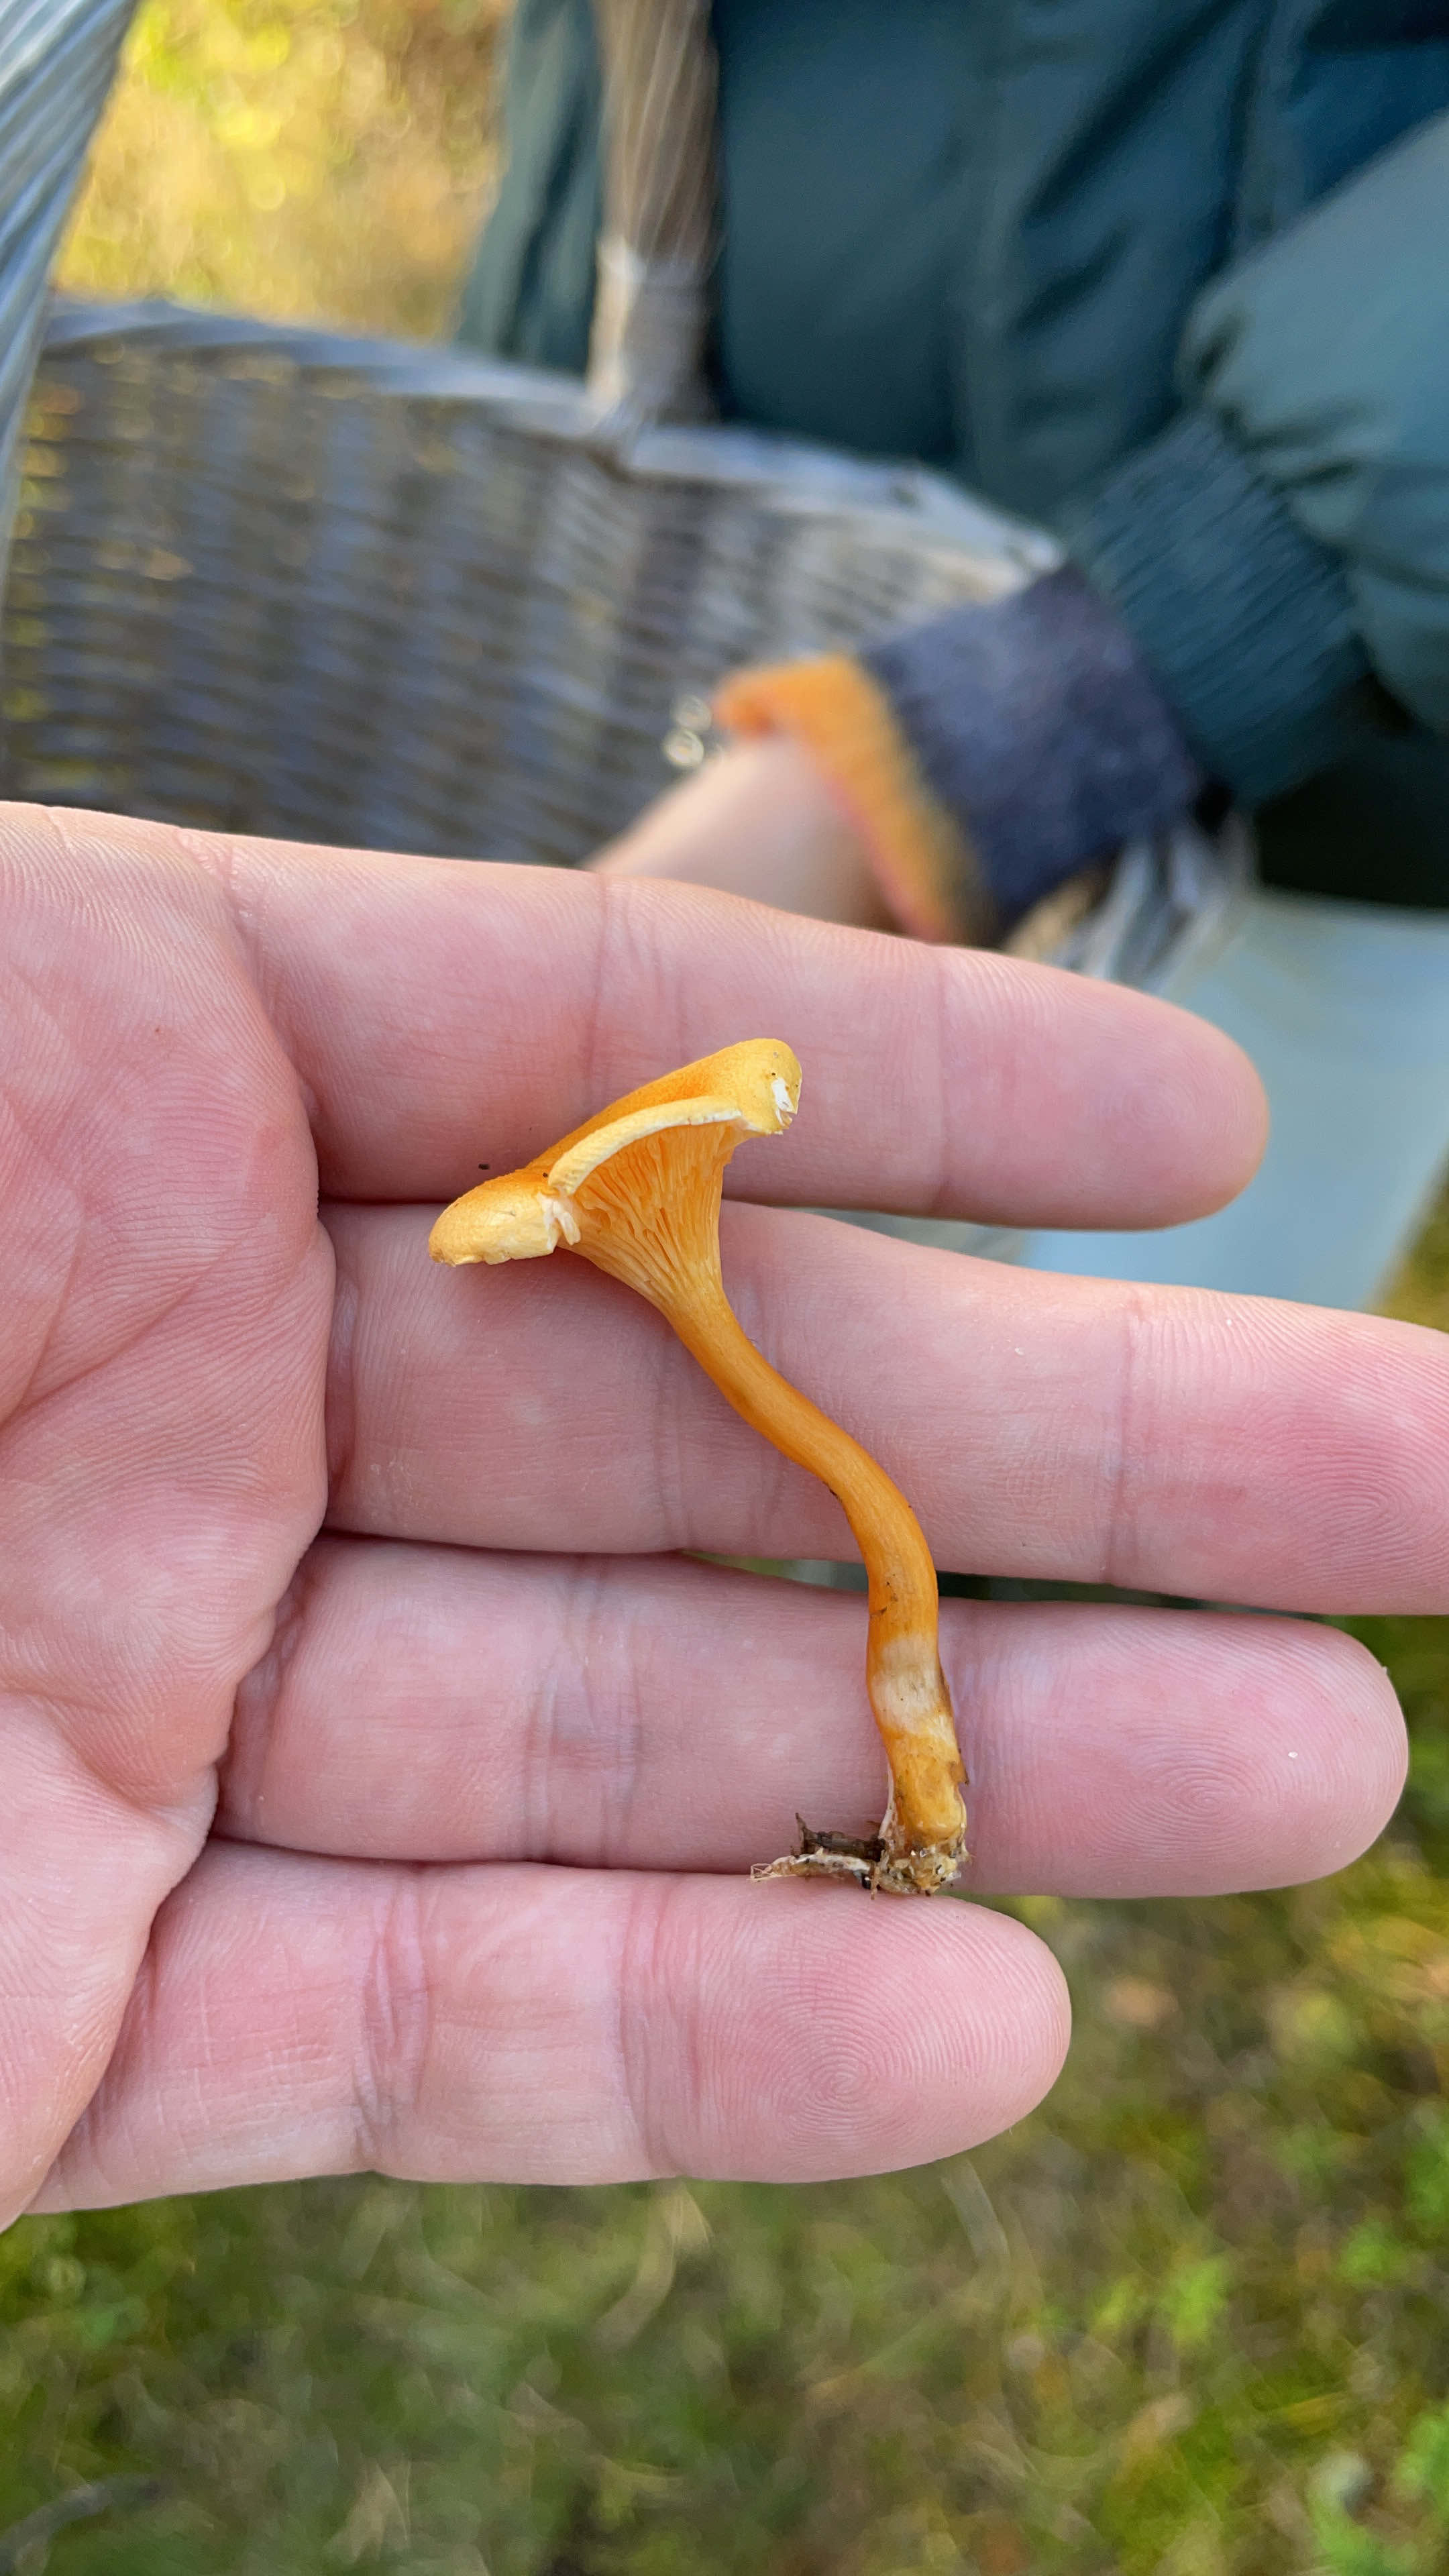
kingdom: Fungi
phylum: Basidiomycota
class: Agaricomycetes
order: Boletales
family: Hygrophoropsidaceae
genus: Hygrophoropsis
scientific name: Hygrophoropsis aurantiaca
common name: almindelig orangekantarel
